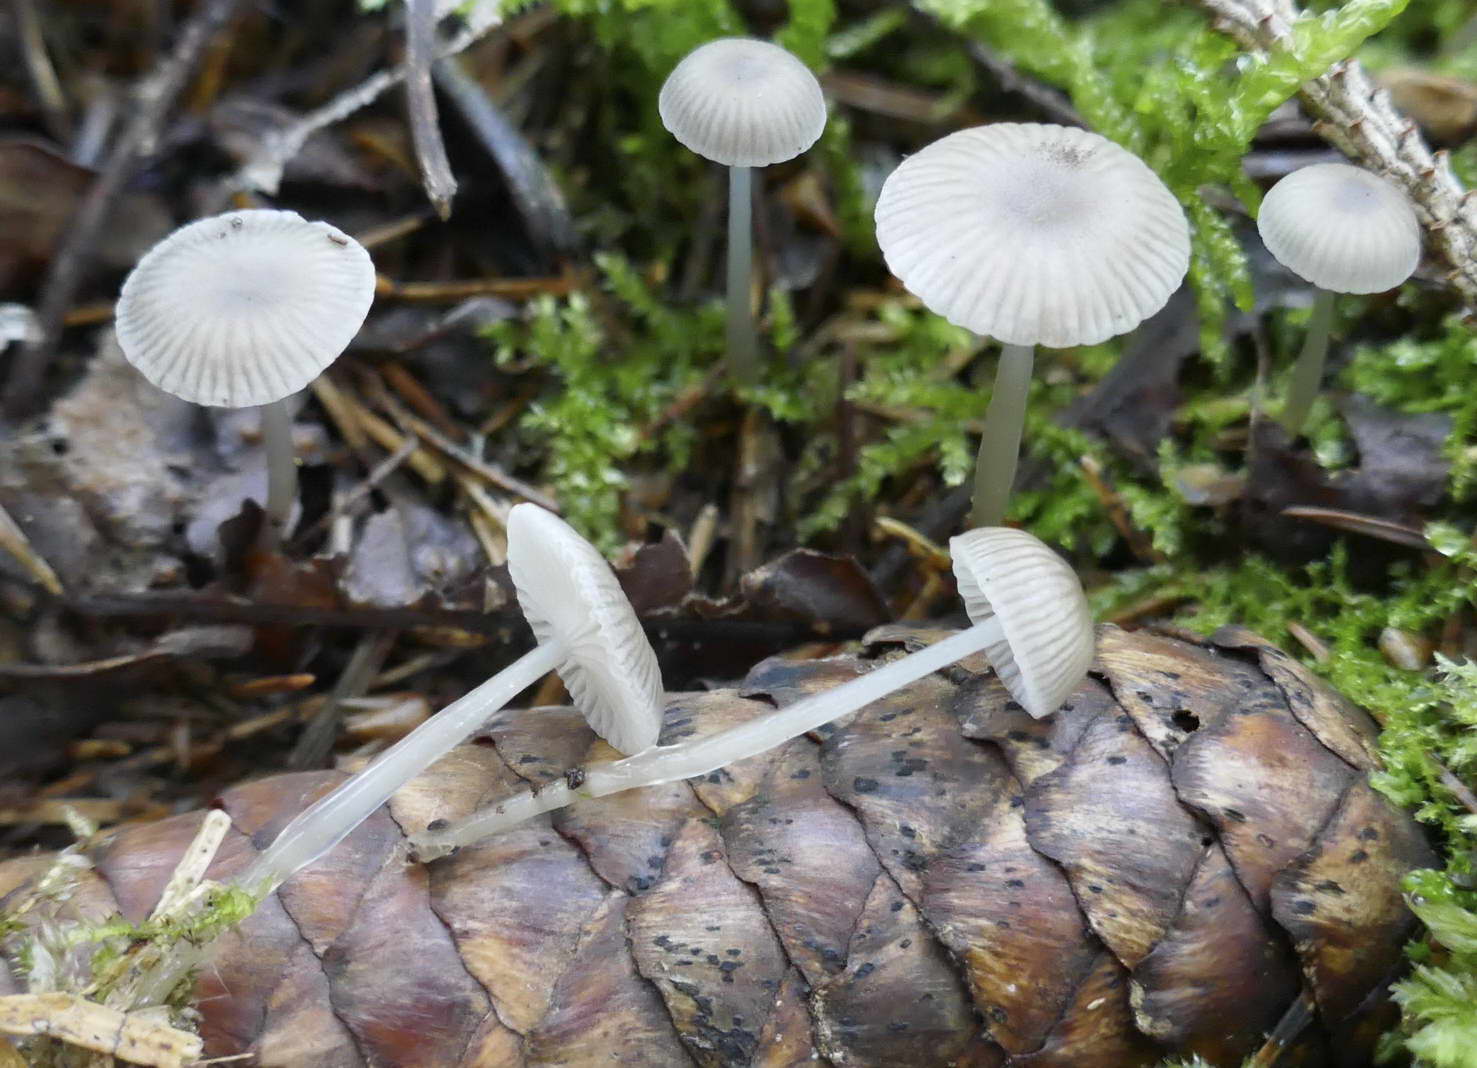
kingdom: Fungi
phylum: Basidiomycota
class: Agaricomycetes
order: Agaricales
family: Mycenaceae
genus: Mycena
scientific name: Mycena vulgaris
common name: klæbrig huesvamp
